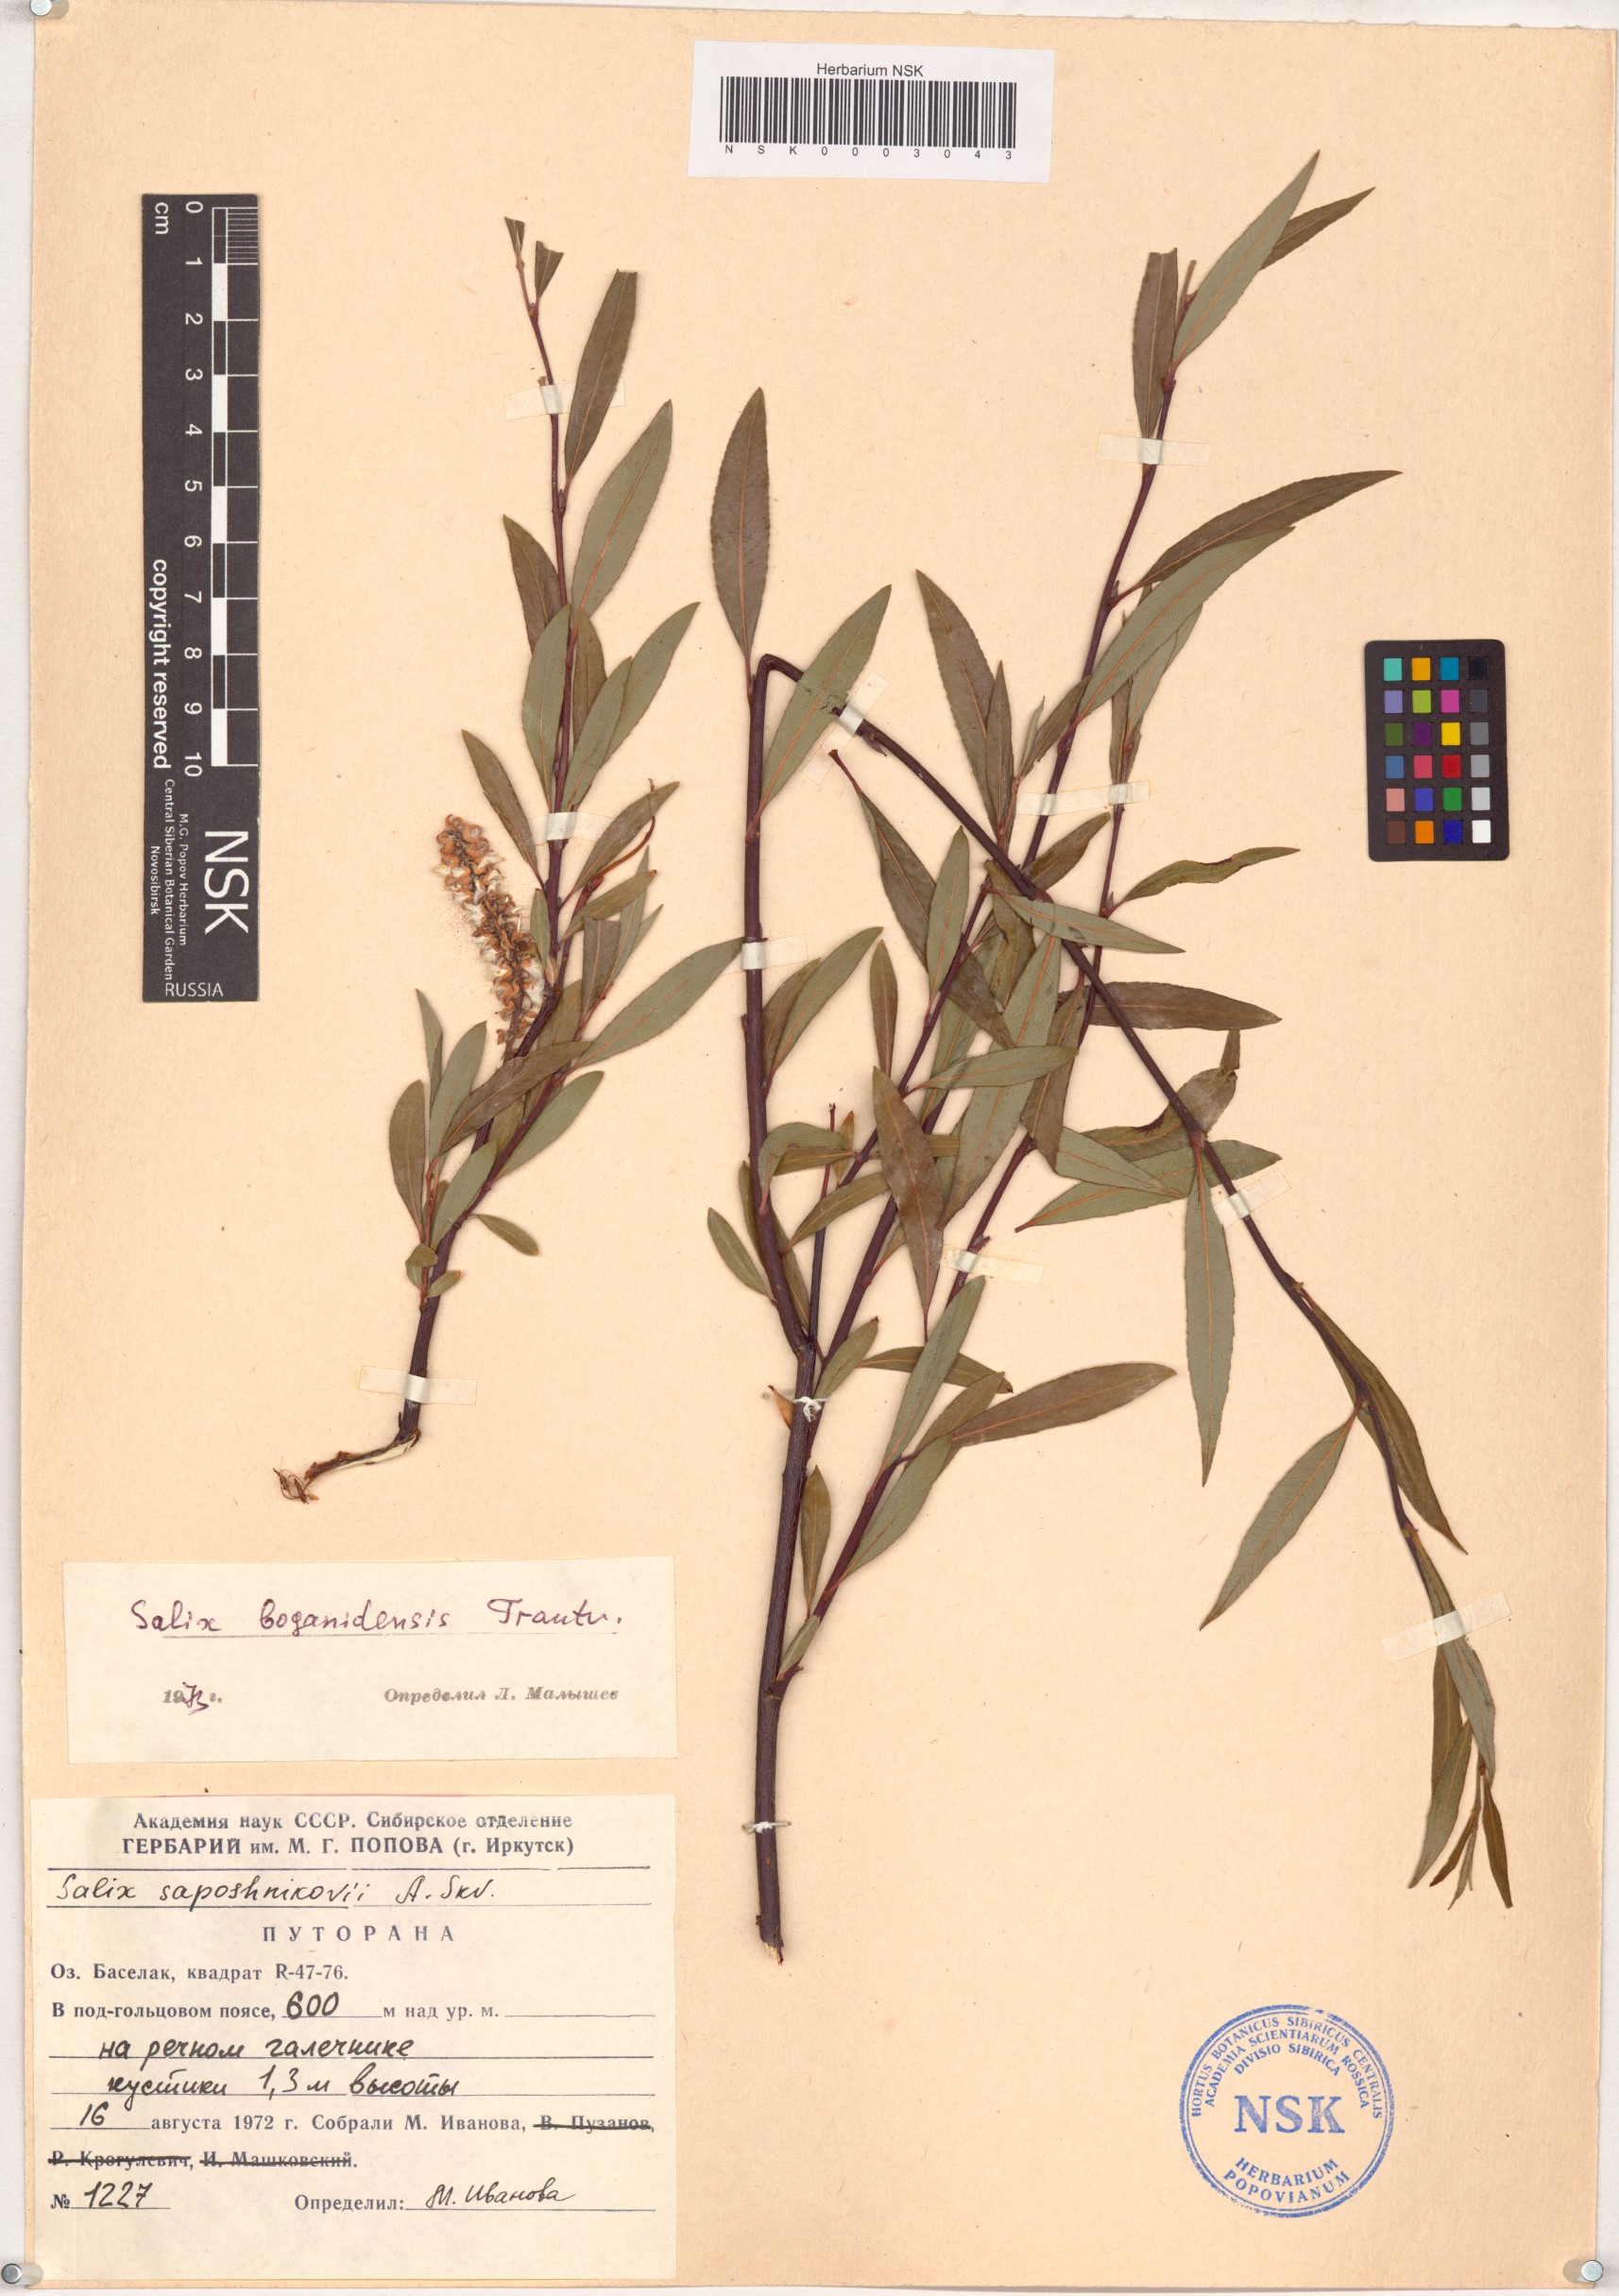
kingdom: Plantae
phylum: Tracheophyta
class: Magnoliopsida
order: Malpighiales
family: Salicaceae
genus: Salix
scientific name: Salix boganidensis
